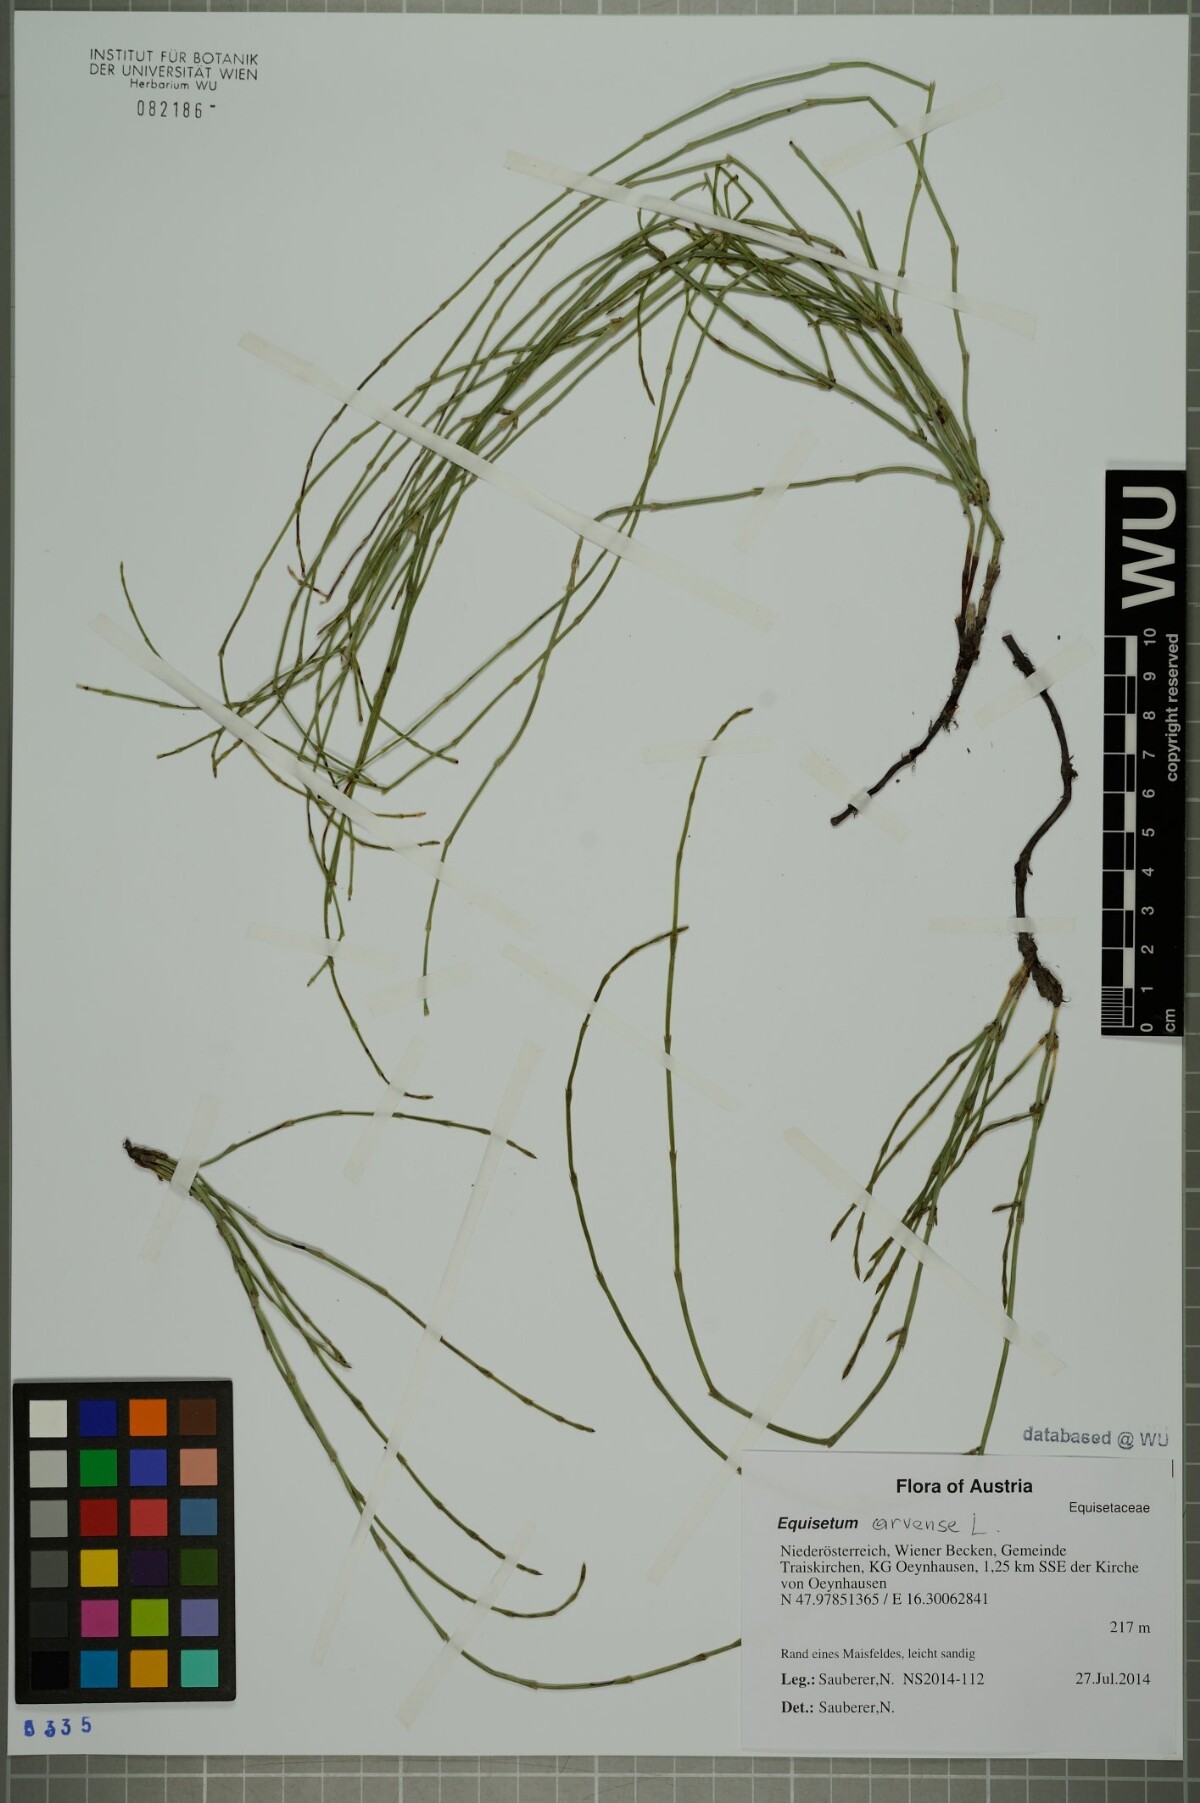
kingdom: Plantae
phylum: Tracheophyta
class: Polypodiopsida
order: Equisetales
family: Equisetaceae
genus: Equisetum
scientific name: Equisetum arvense
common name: Field horsetail
